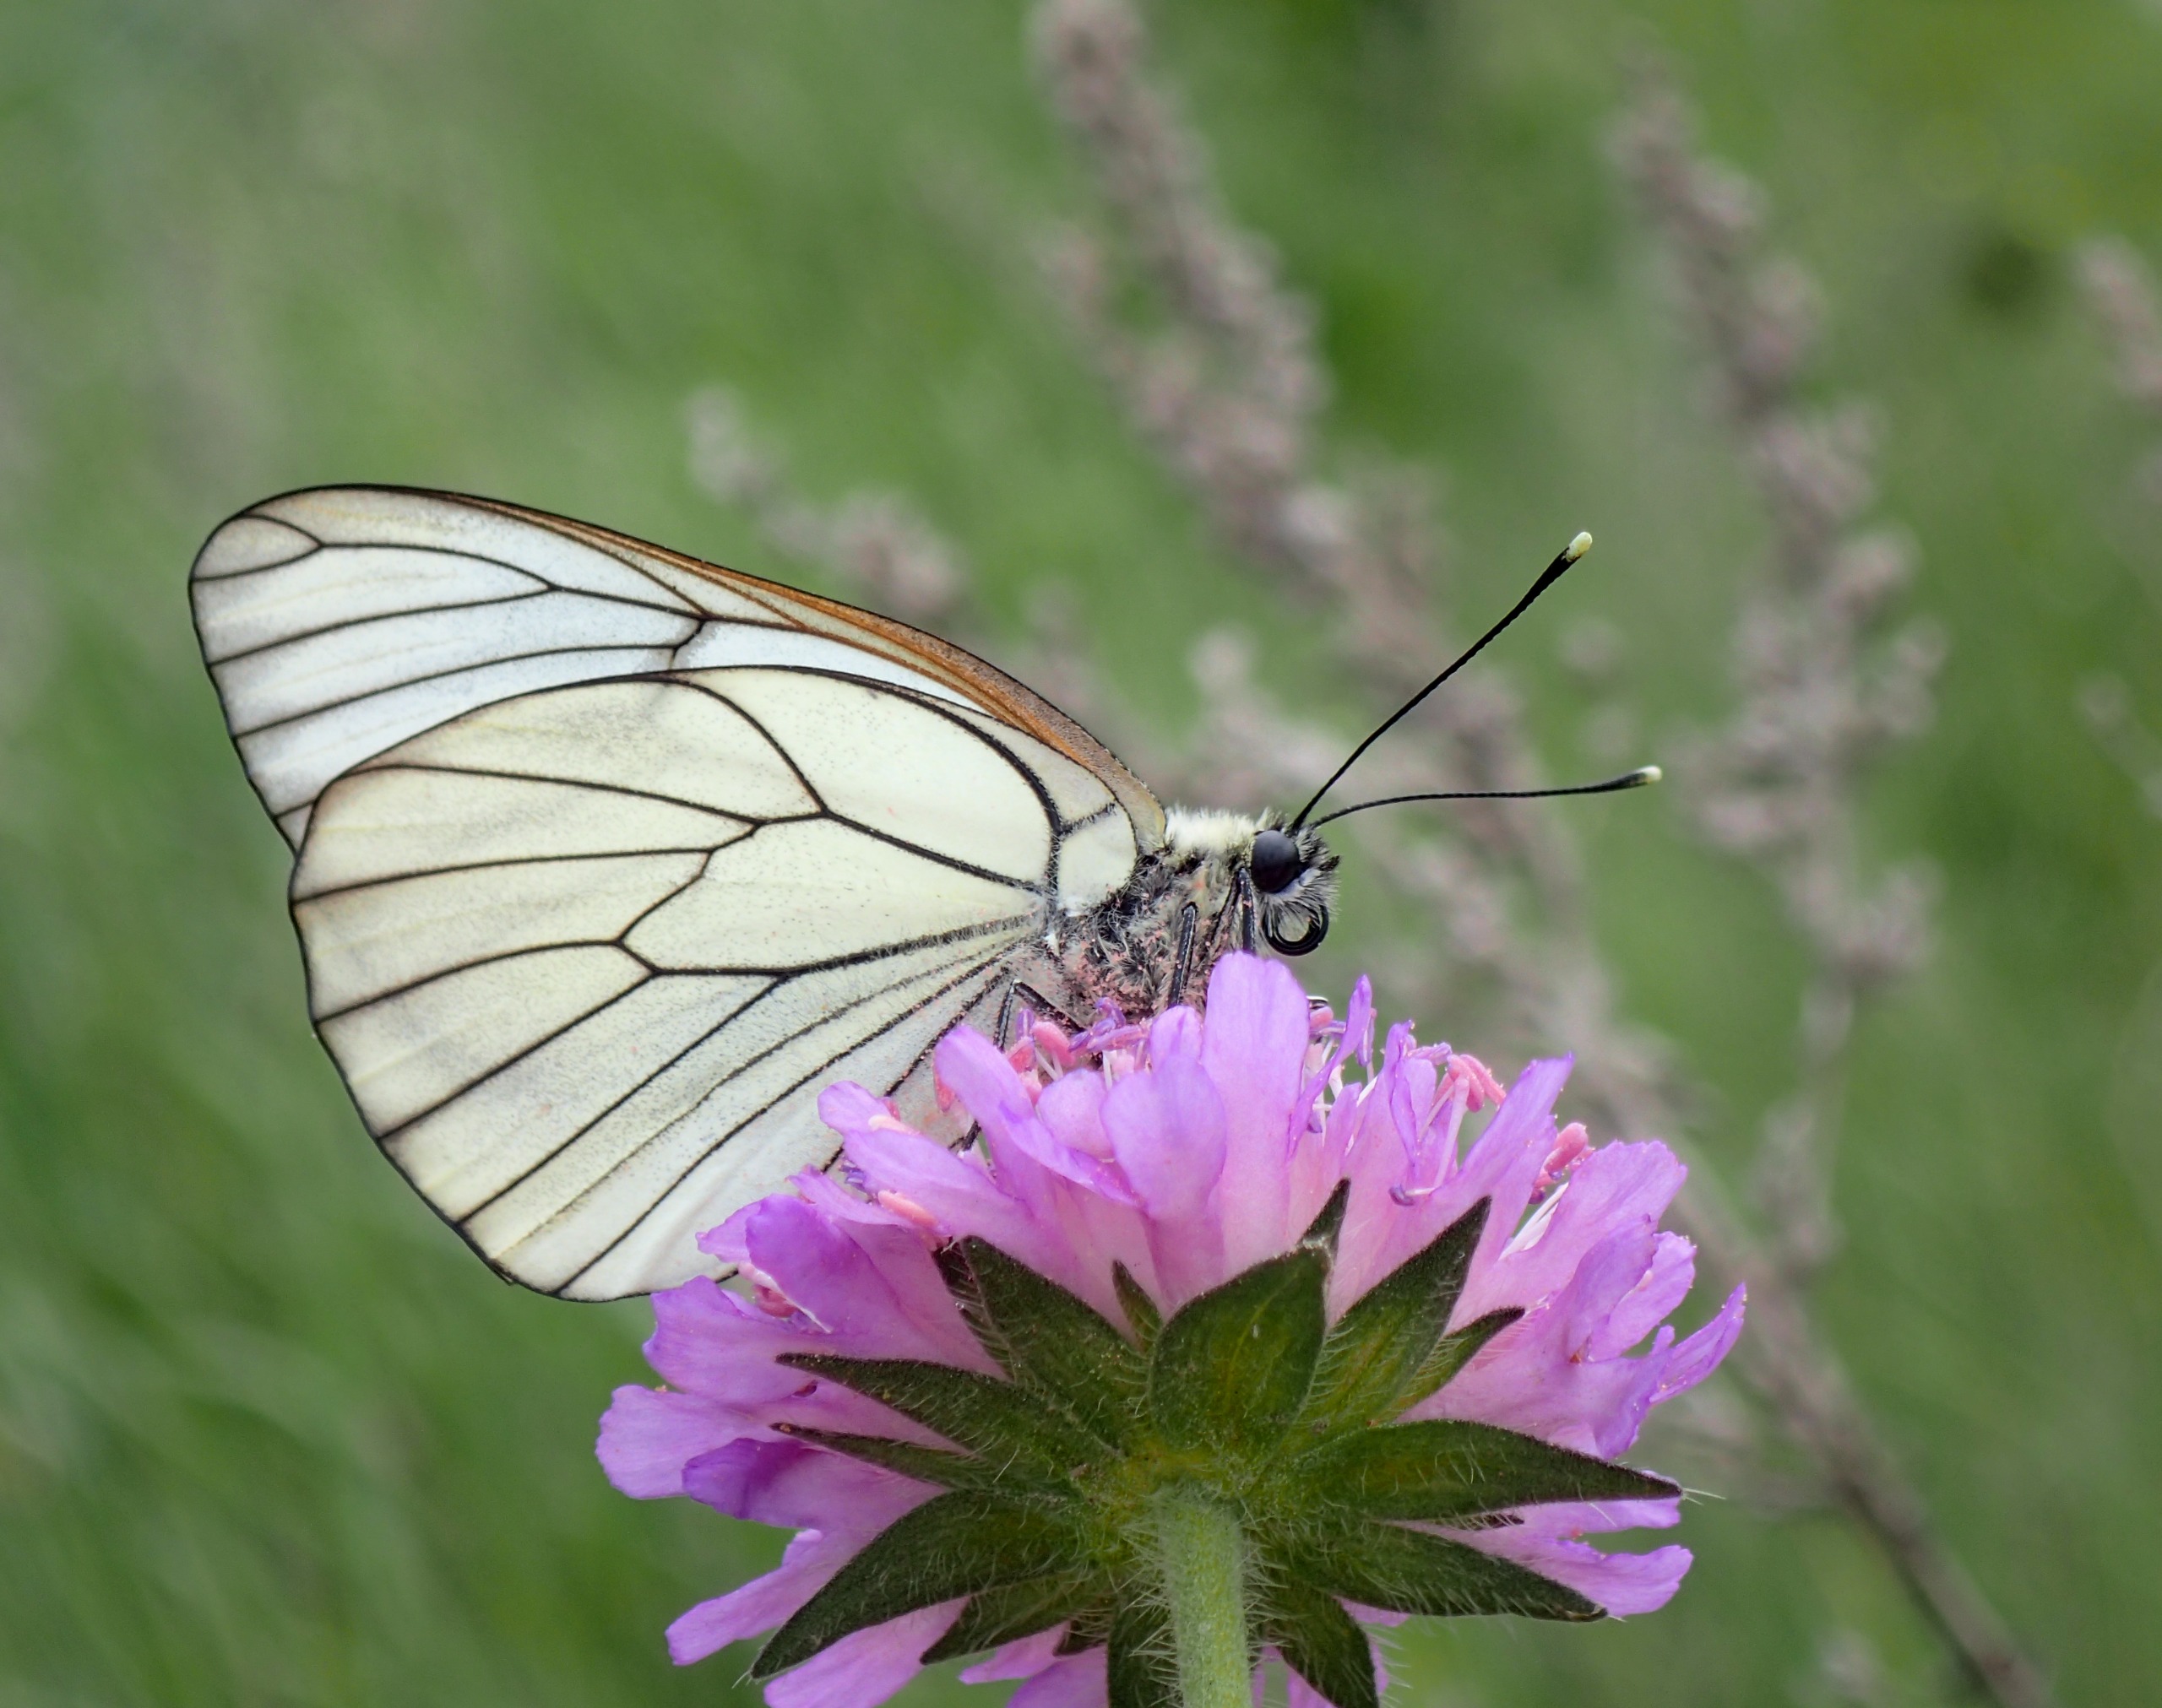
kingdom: Animalia
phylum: Arthropoda
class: Insecta
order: Lepidoptera
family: Pieridae
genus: Aporia
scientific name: Aporia crataegi
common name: Sortåret hvidvinge
